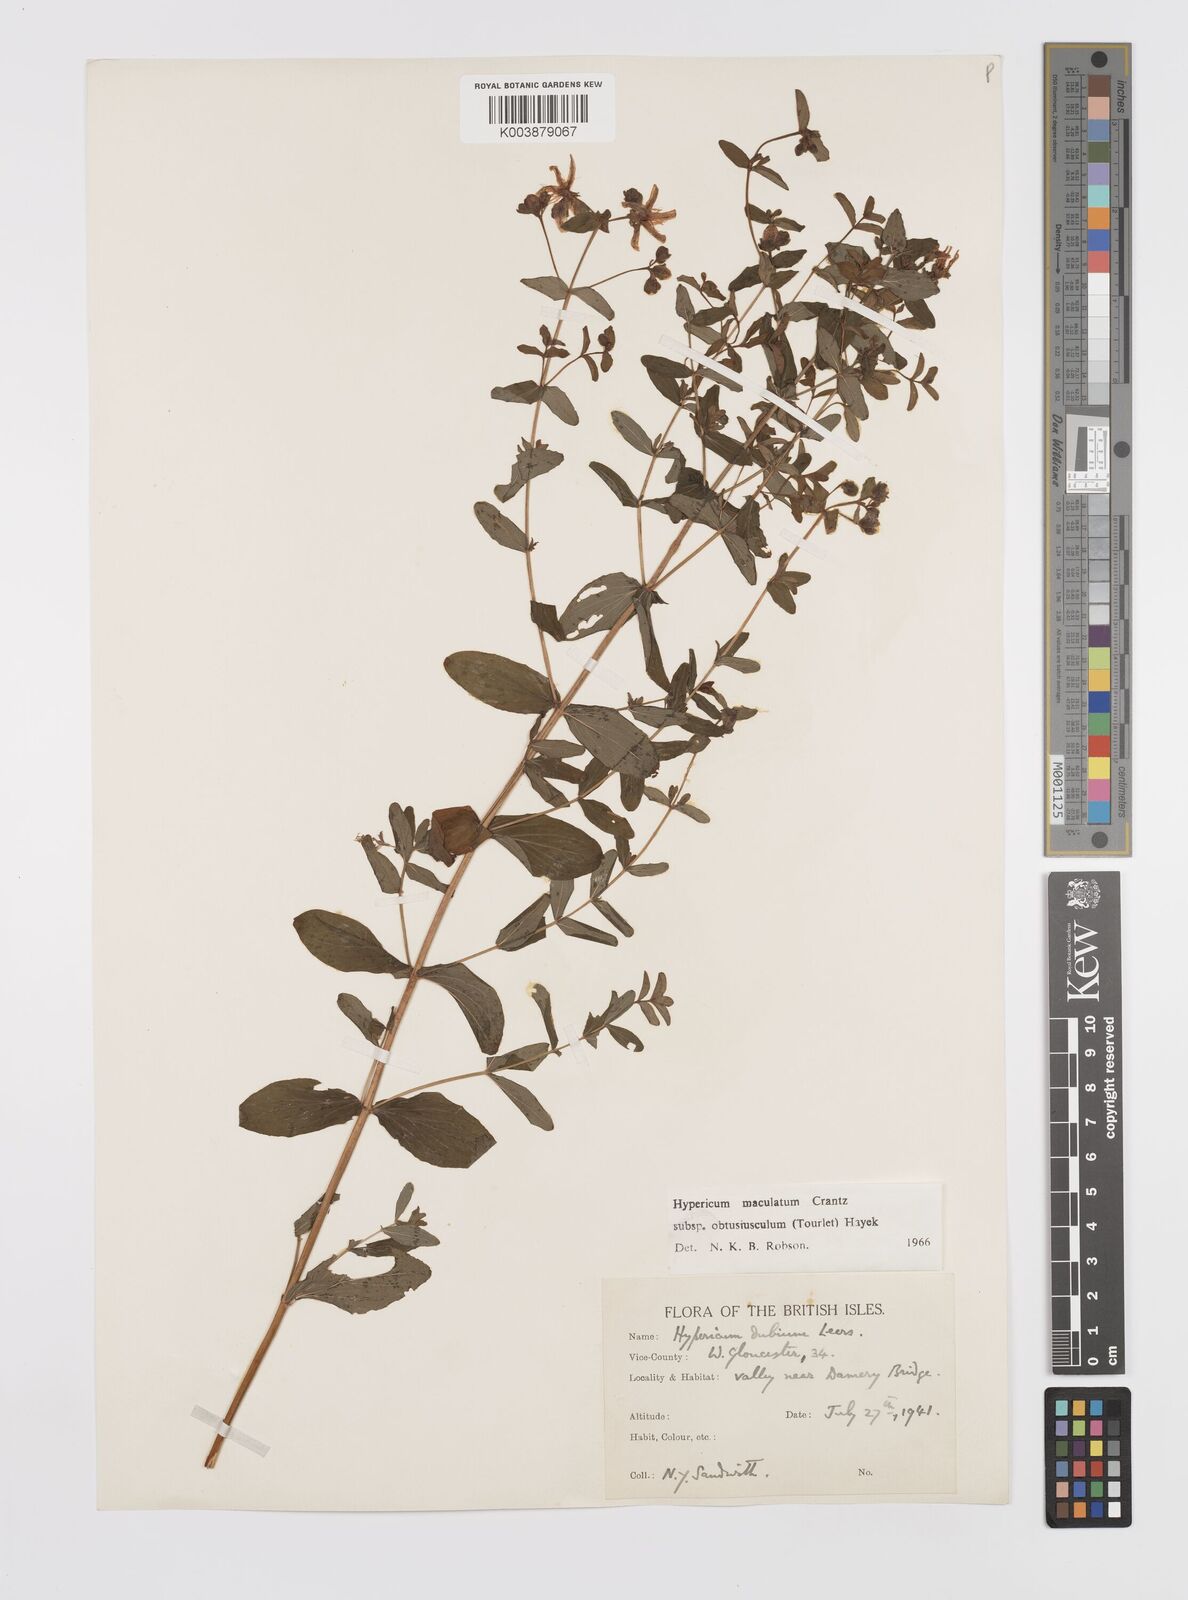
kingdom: Plantae
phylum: Tracheophyta
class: Magnoliopsida
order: Malpighiales
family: Hypericaceae
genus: Hypericum
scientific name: Hypericum dubium
